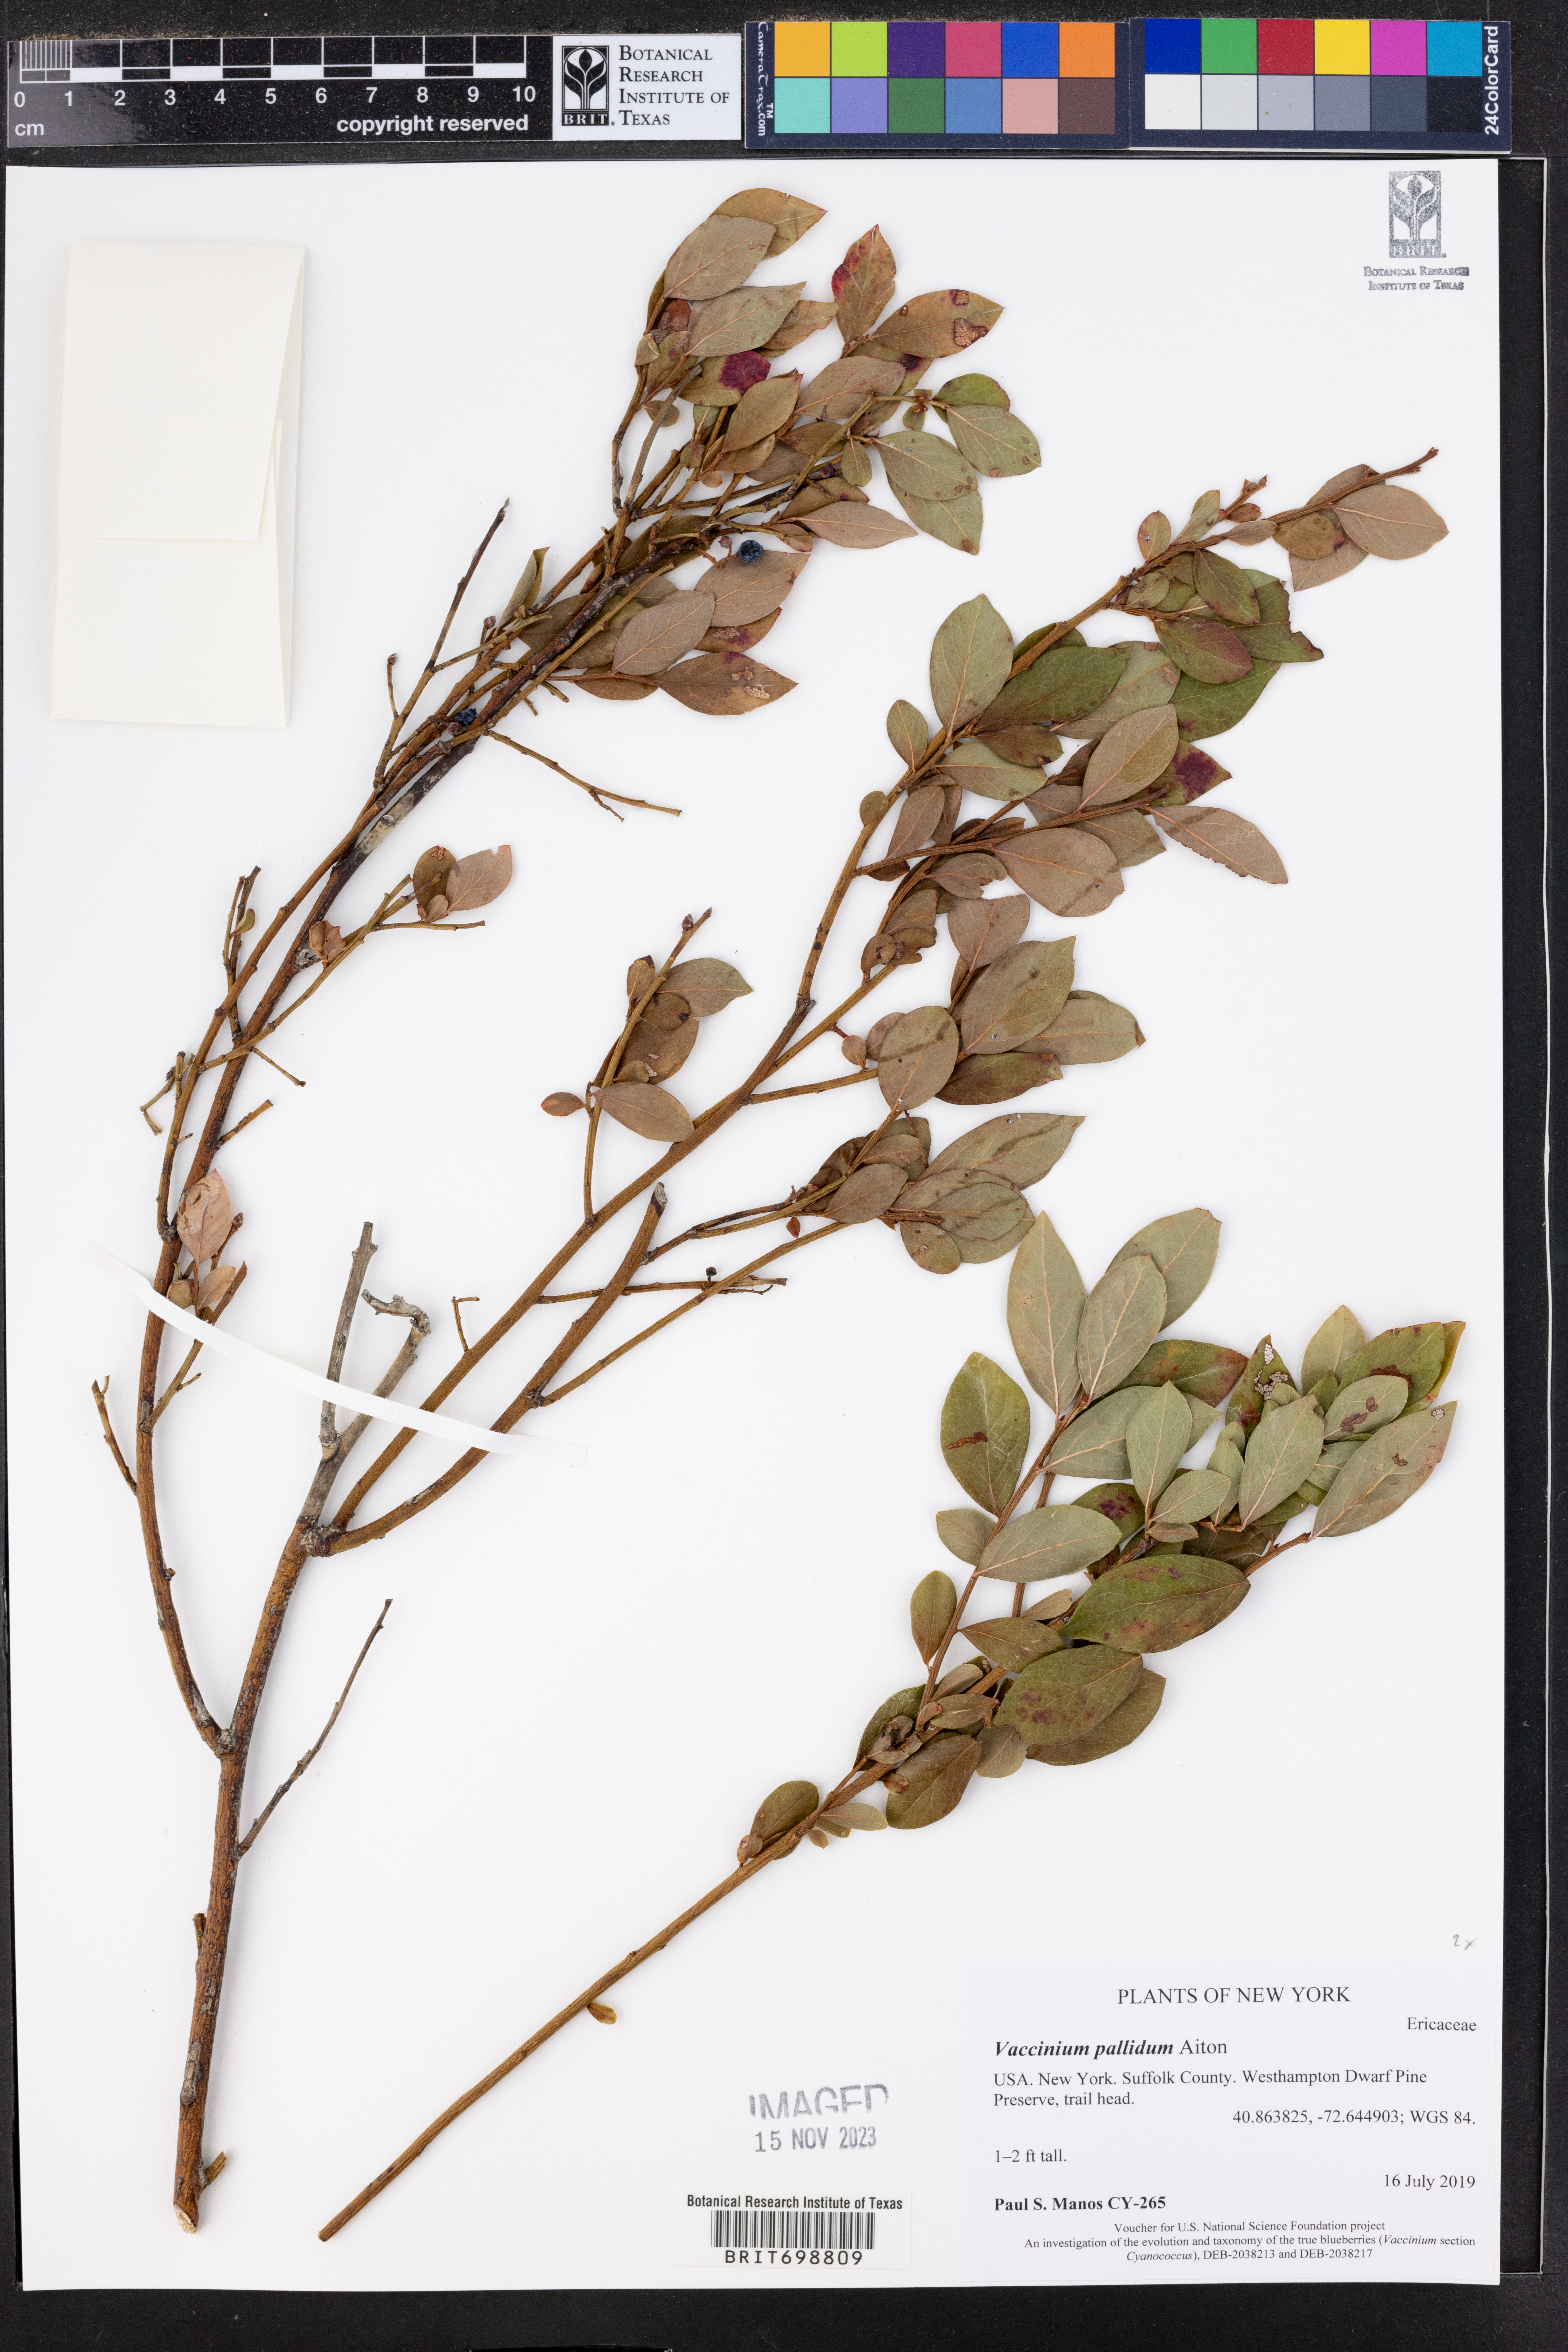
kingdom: Plantae
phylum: Tracheophyta
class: Magnoliopsida
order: Ericales
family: Ericaceae
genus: Vaccinium
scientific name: Vaccinium pallidum
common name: Blue ridge blueberry
